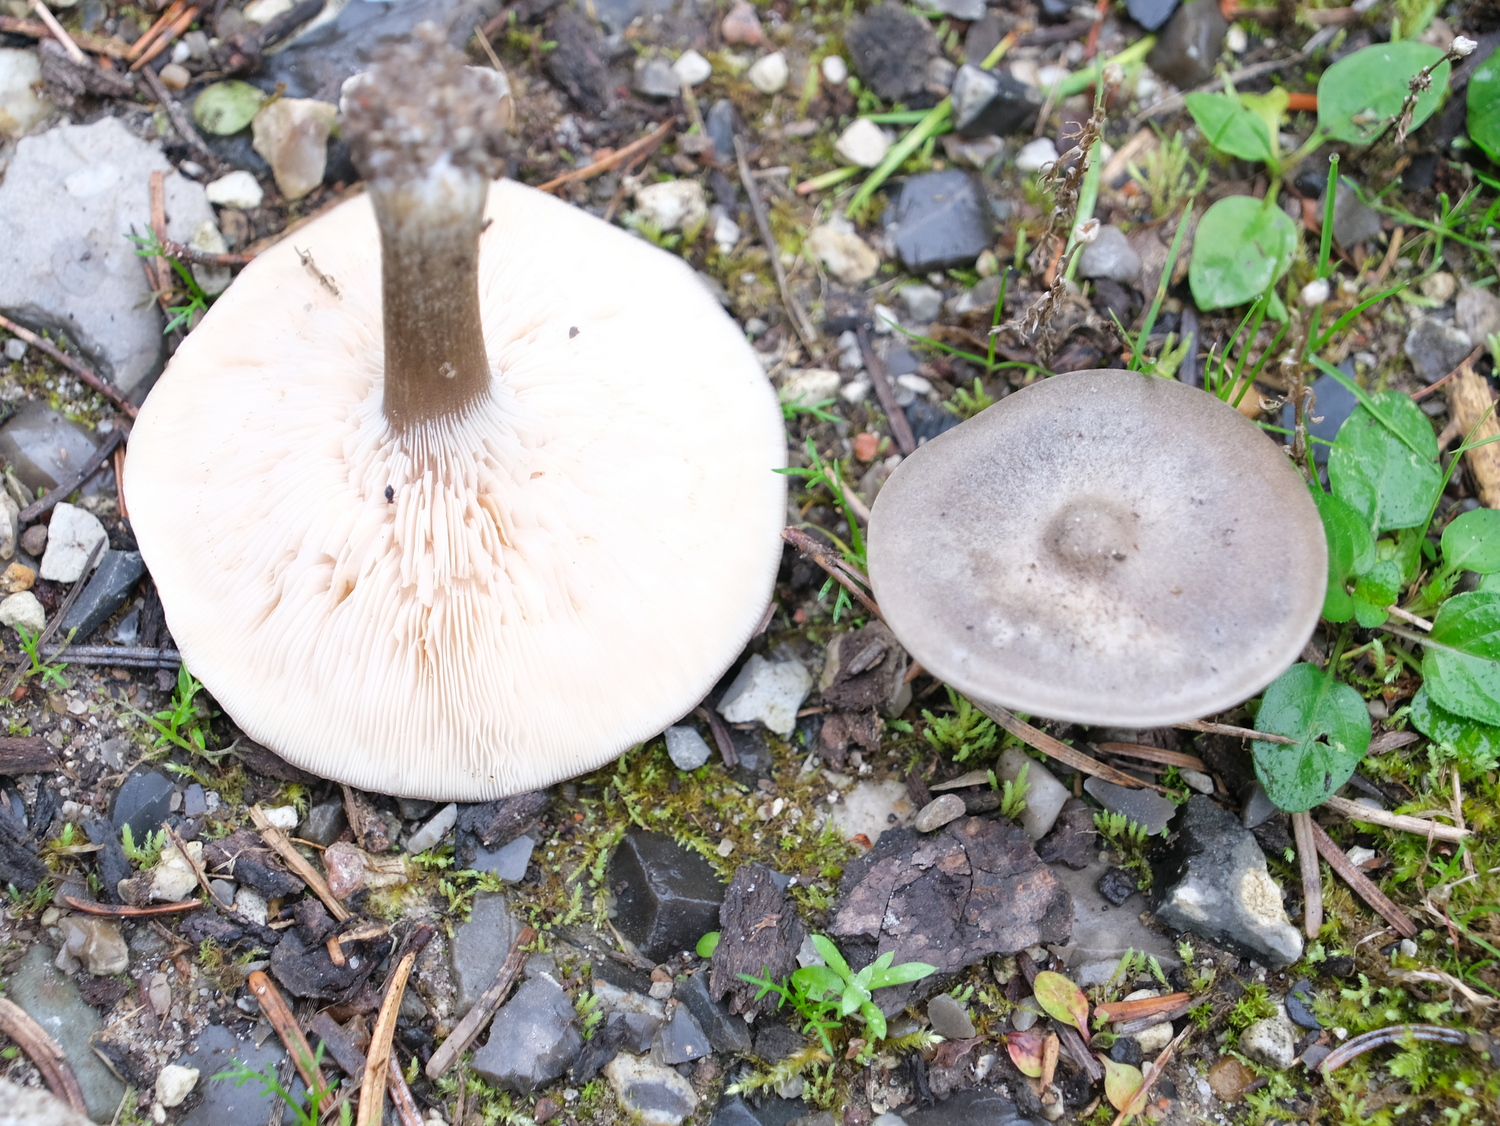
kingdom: Fungi
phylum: Basidiomycota
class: Agaricomycetes
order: Agaricales
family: Tricholomataceae
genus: Melanoleuca
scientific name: Melanoleuca
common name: munkehat
